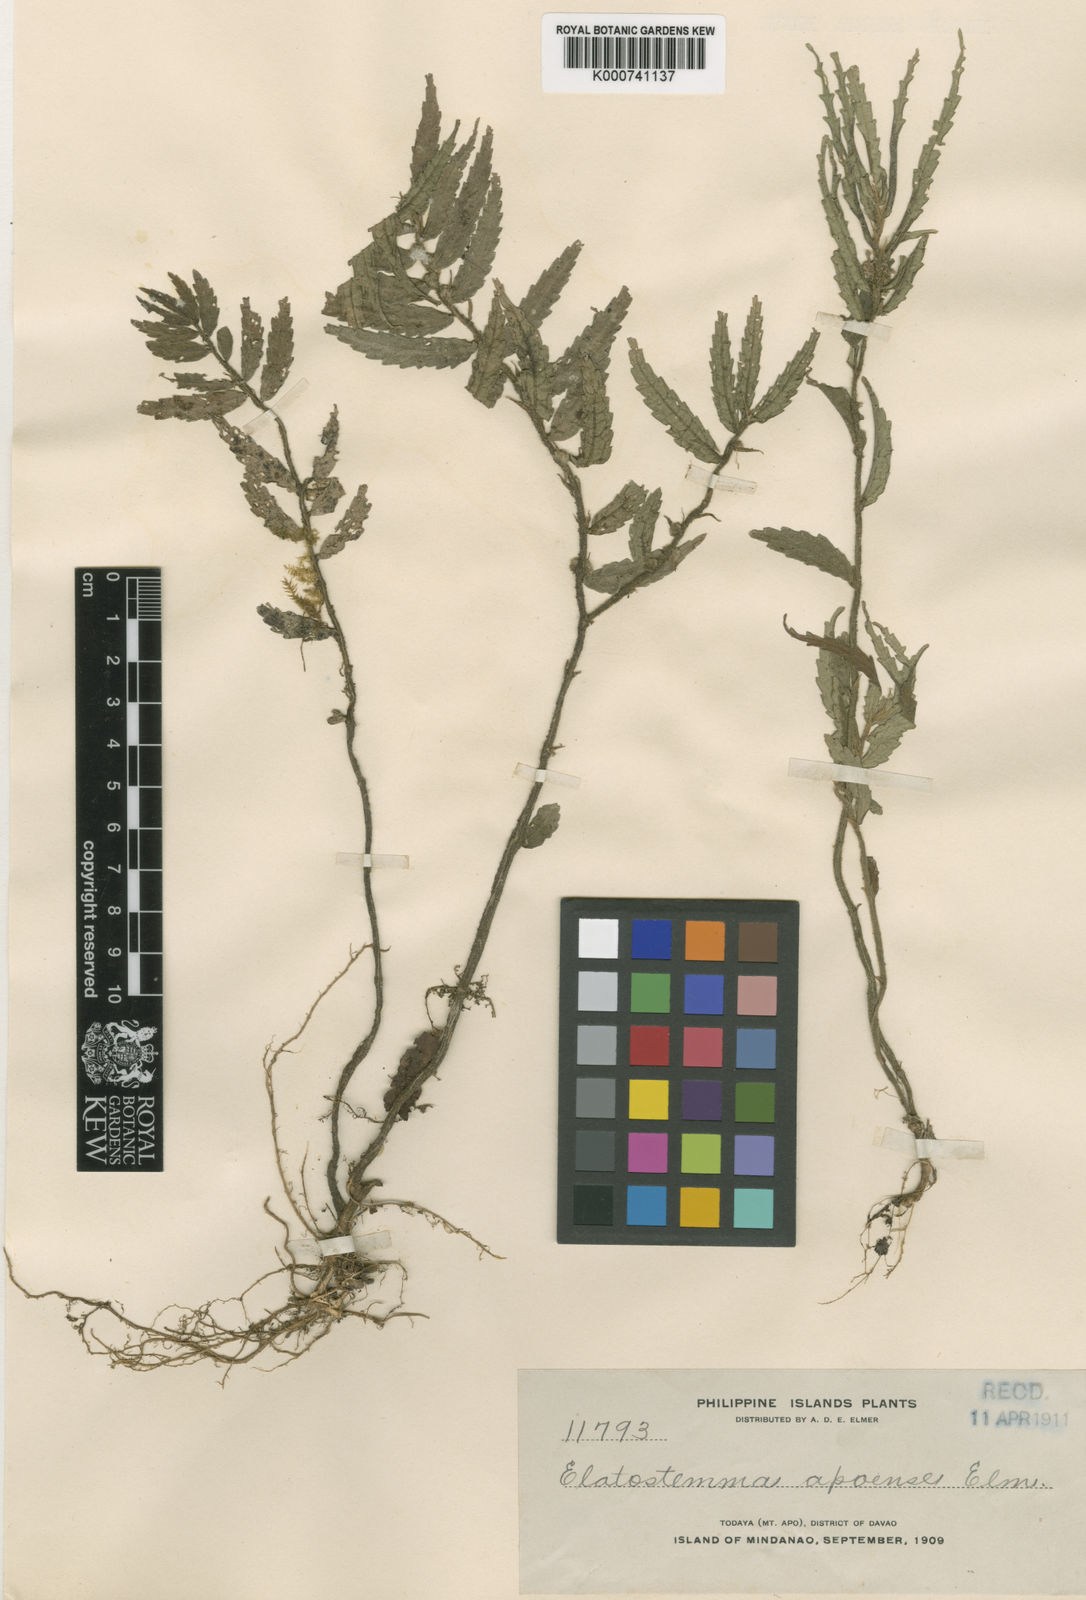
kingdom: Plantae
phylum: Tracheophyta
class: Magnoliopsida
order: Rosales
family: Urticaceae
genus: Elatostema
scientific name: Elatostema apoense
